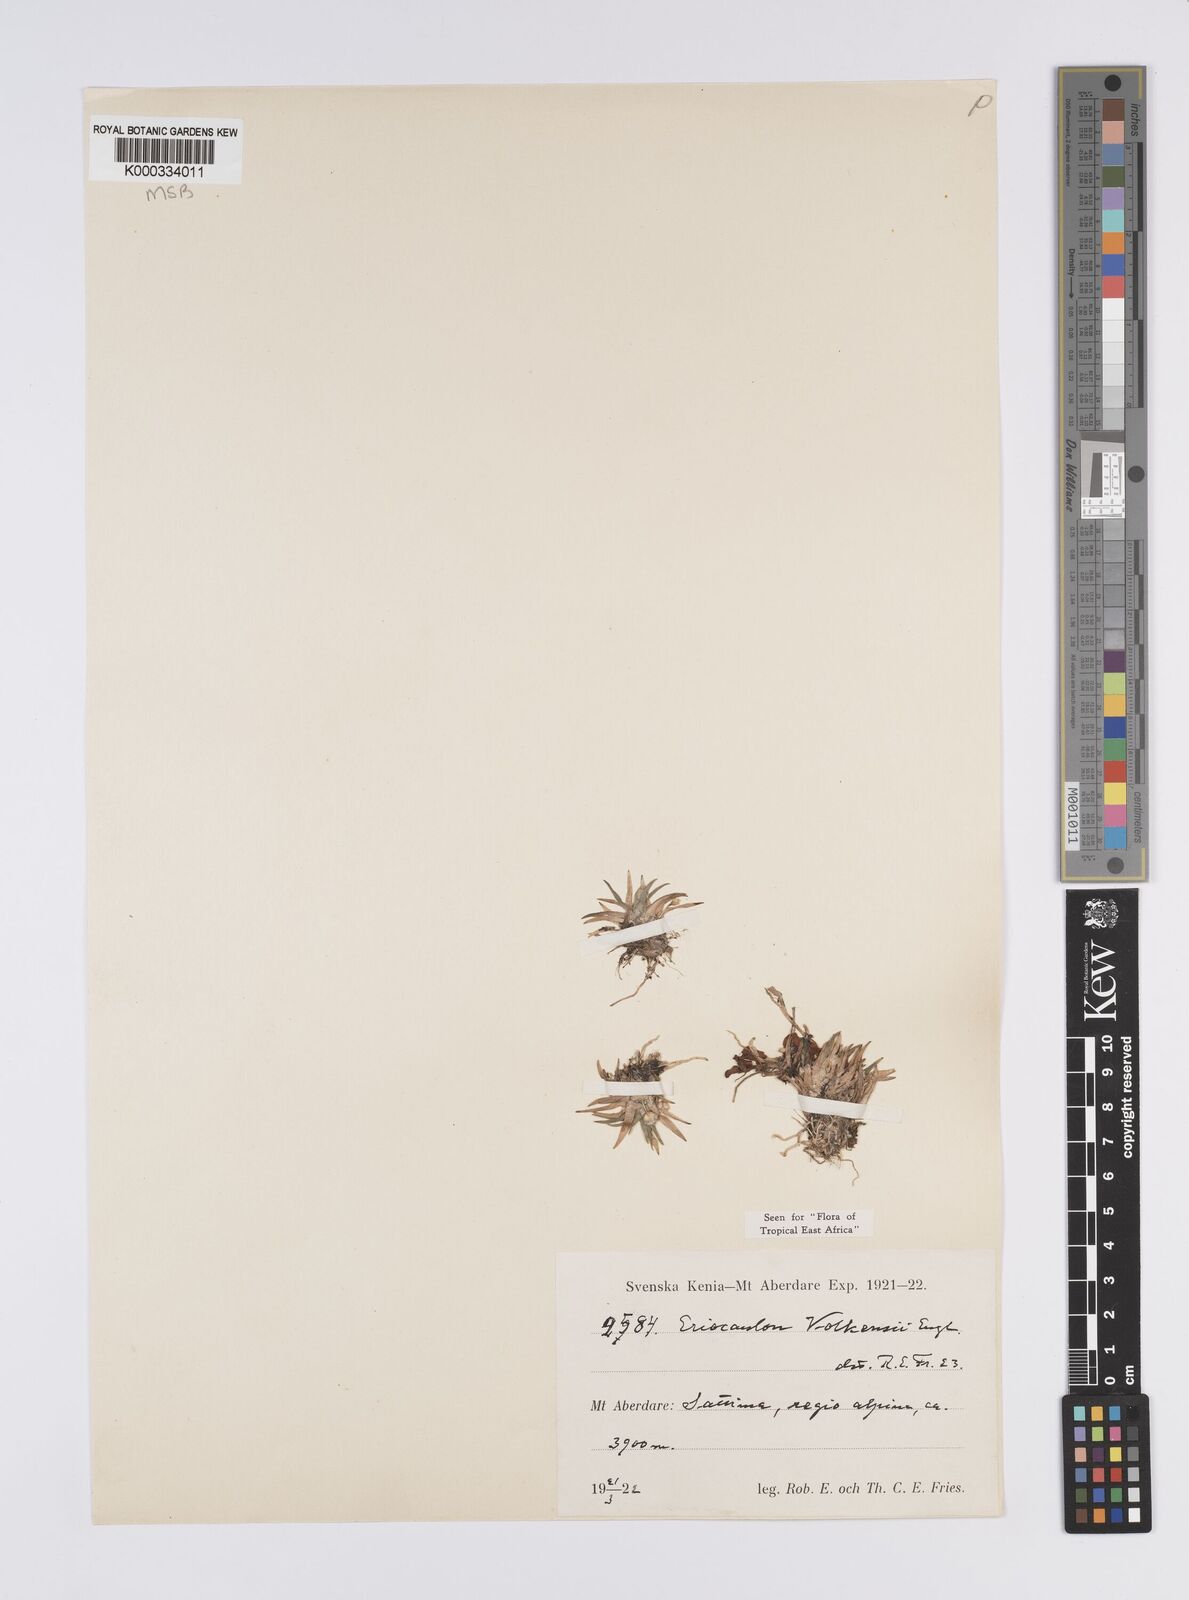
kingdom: Plantae
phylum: Tracheophyta
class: Liliopsida
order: Poales
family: Eriocaulaceae
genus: Eriocaulon
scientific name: Eriocaulon volkensii
